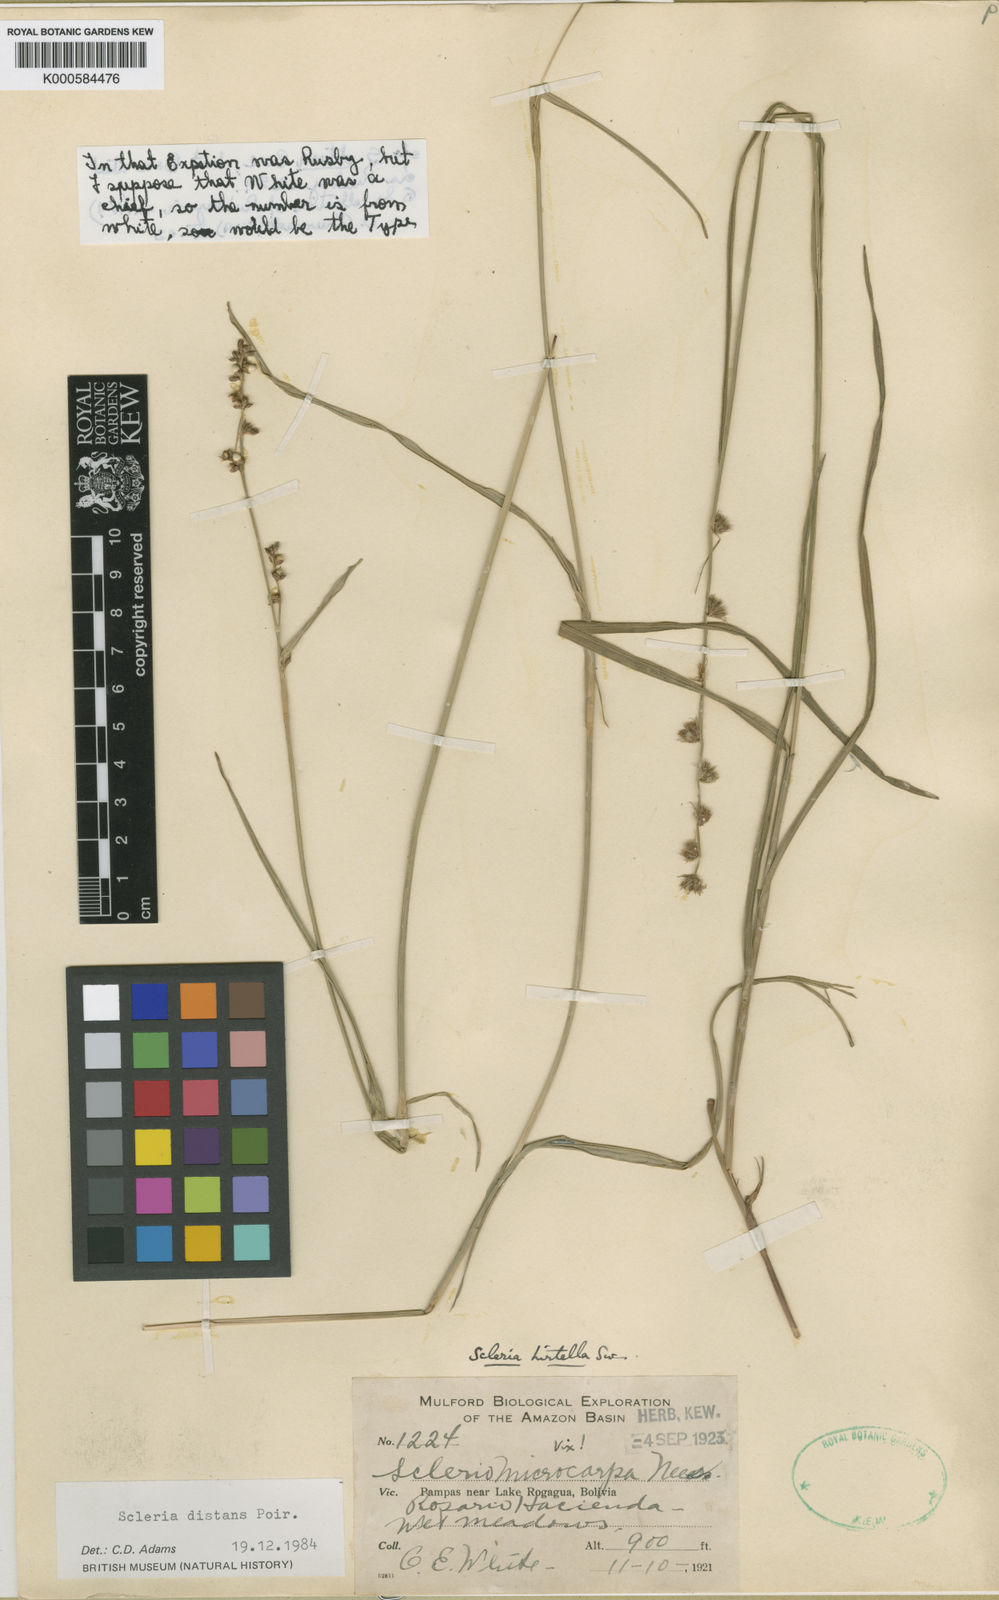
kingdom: Plantae
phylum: Tracheophyta
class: Liliopsida
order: Poales
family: Cyperaceae
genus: Scleria
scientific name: Scleria distans
